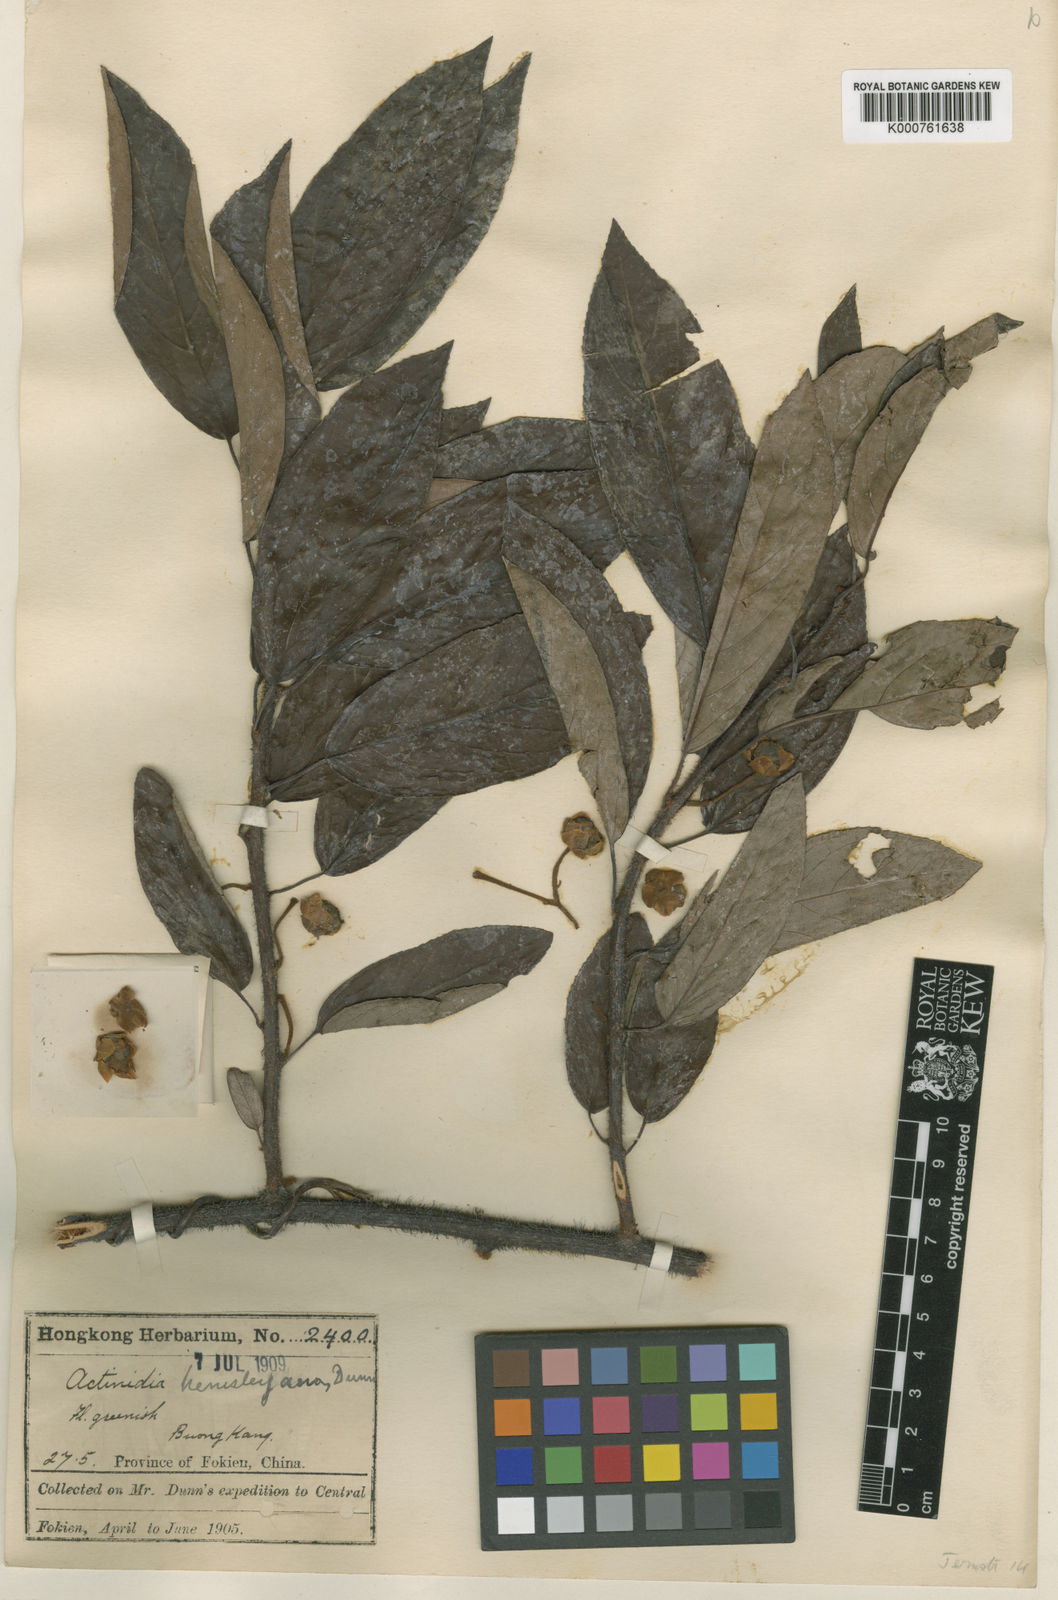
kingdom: Plantae
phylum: Tracheophyta
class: Magnoliopsida
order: Ericales
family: Actinidiaceae
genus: Actinidia
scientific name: Actinidia lanceolata
